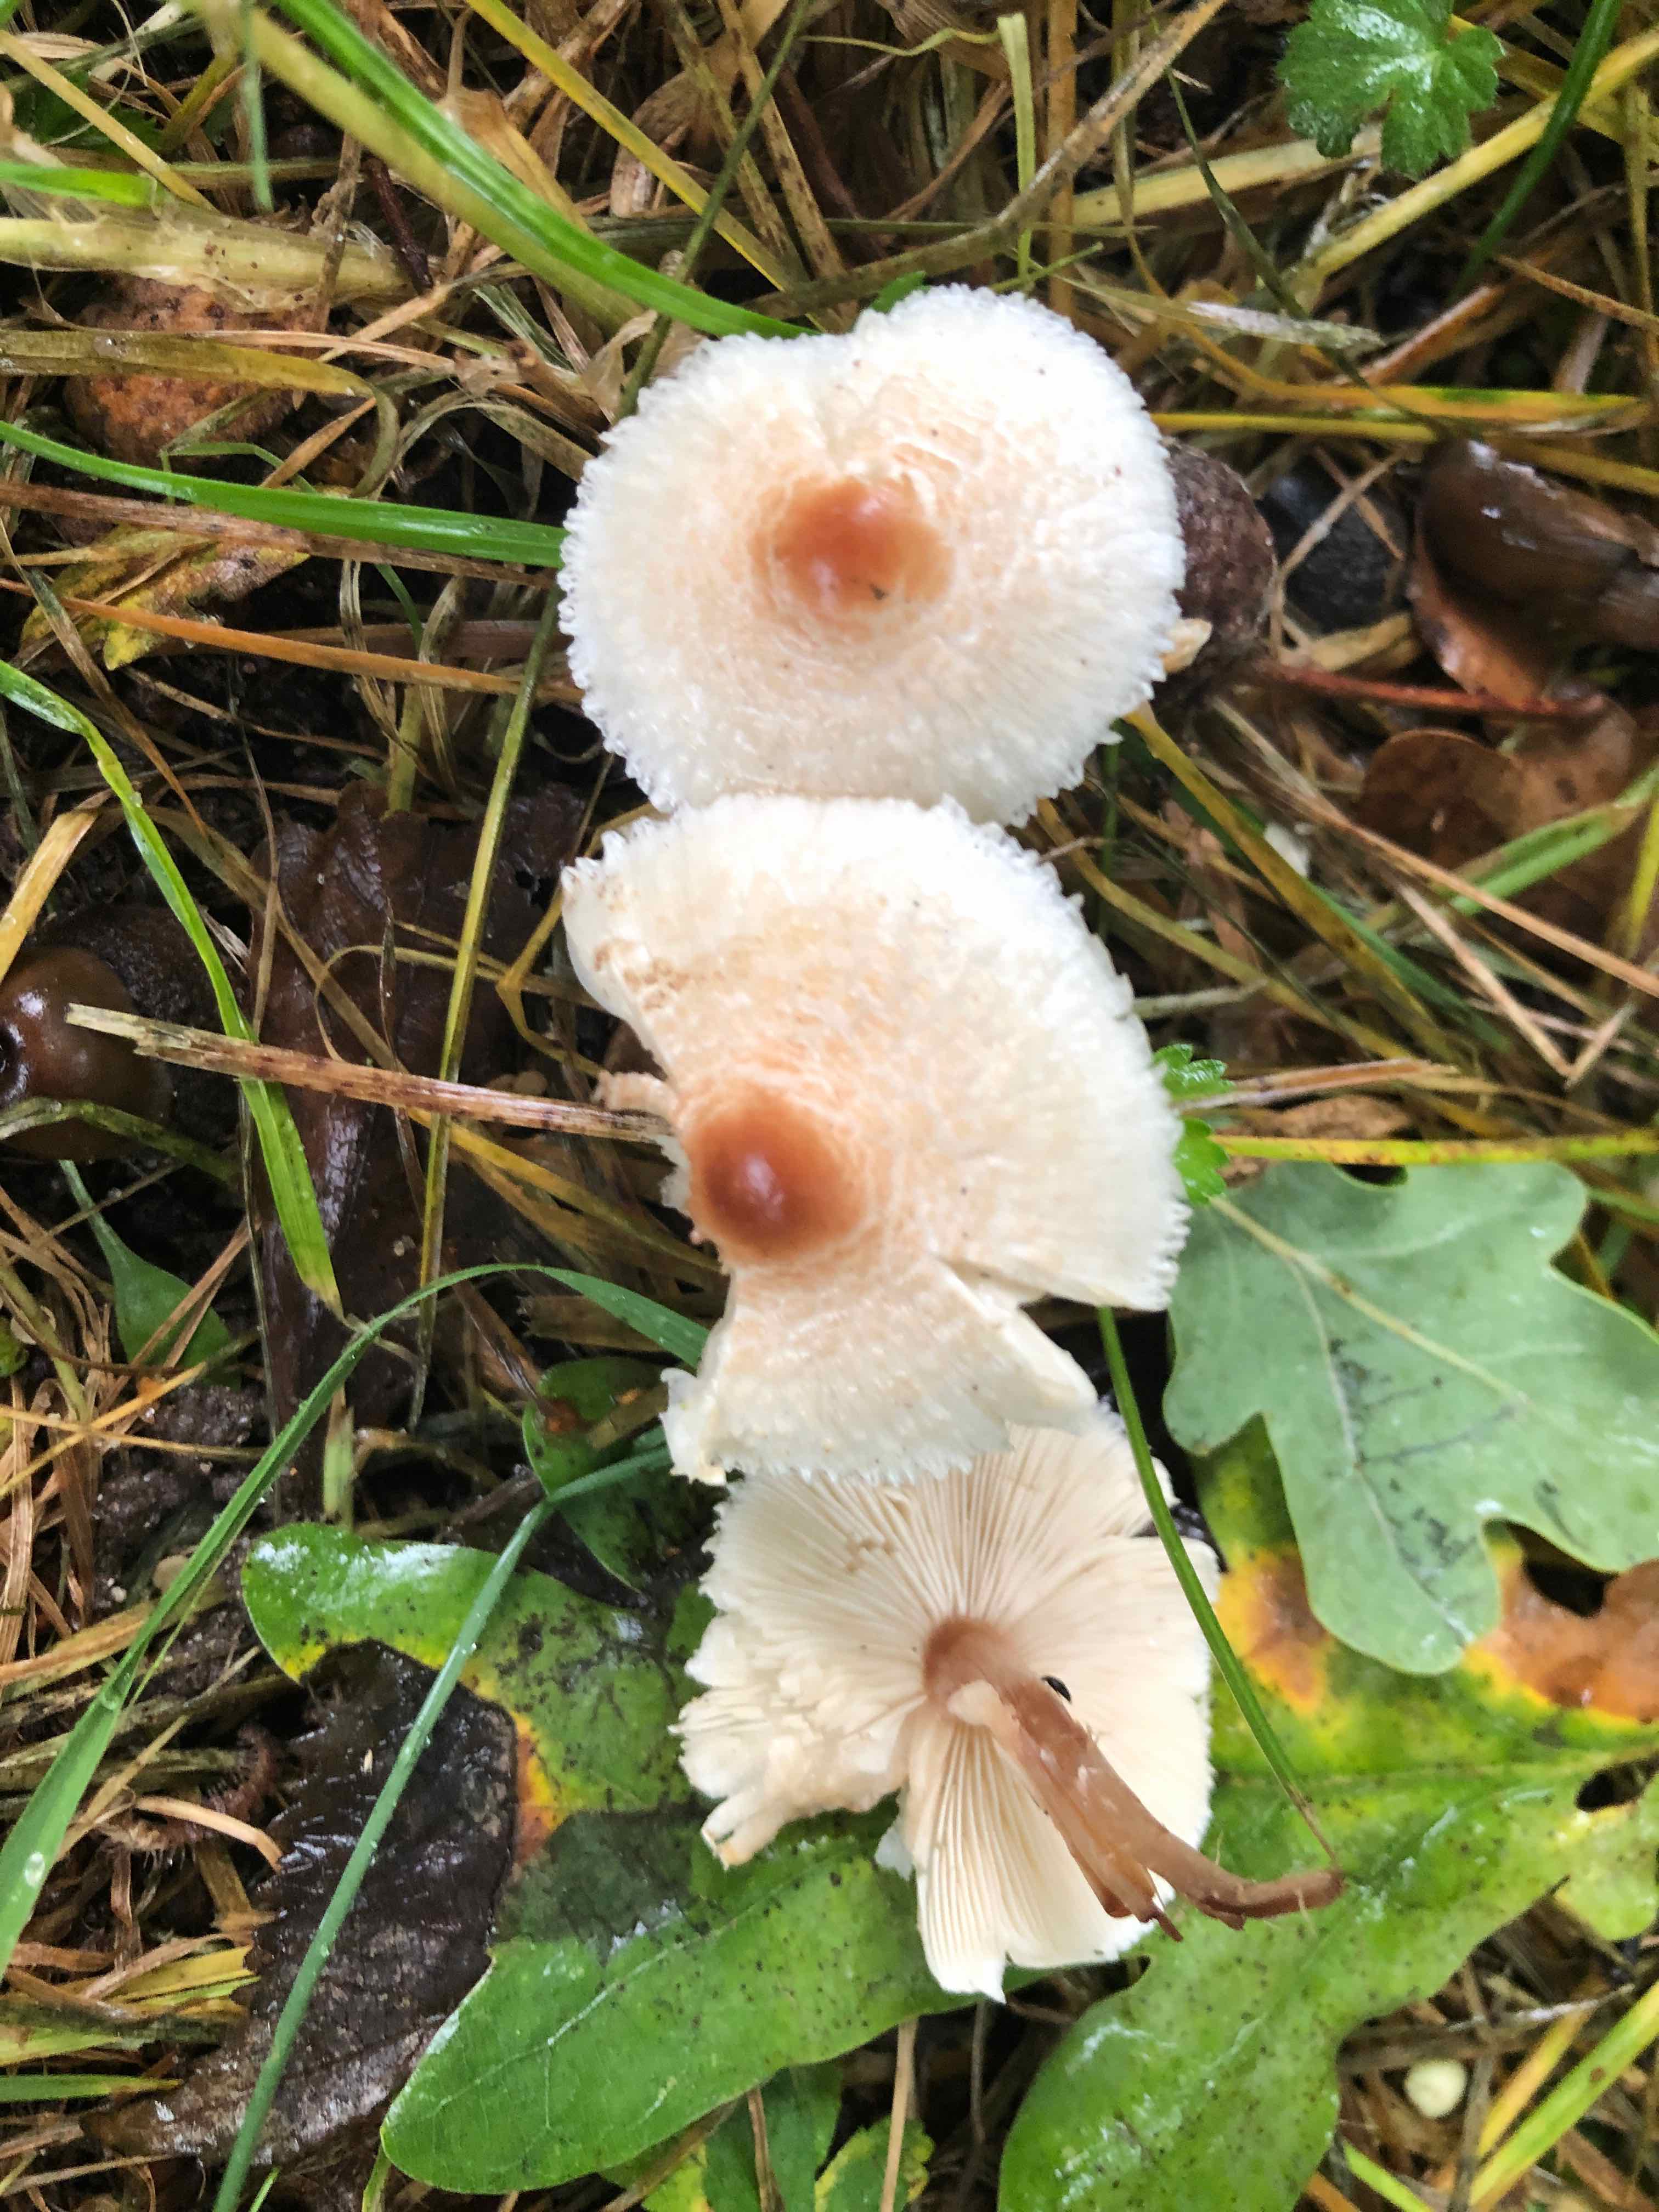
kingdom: Fungi
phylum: Basidiomycota
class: Agaricomycetes
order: Agaricales
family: Agaricaceae
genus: Lepiota
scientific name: Lepiota cristata
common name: stinkende parasolhat
